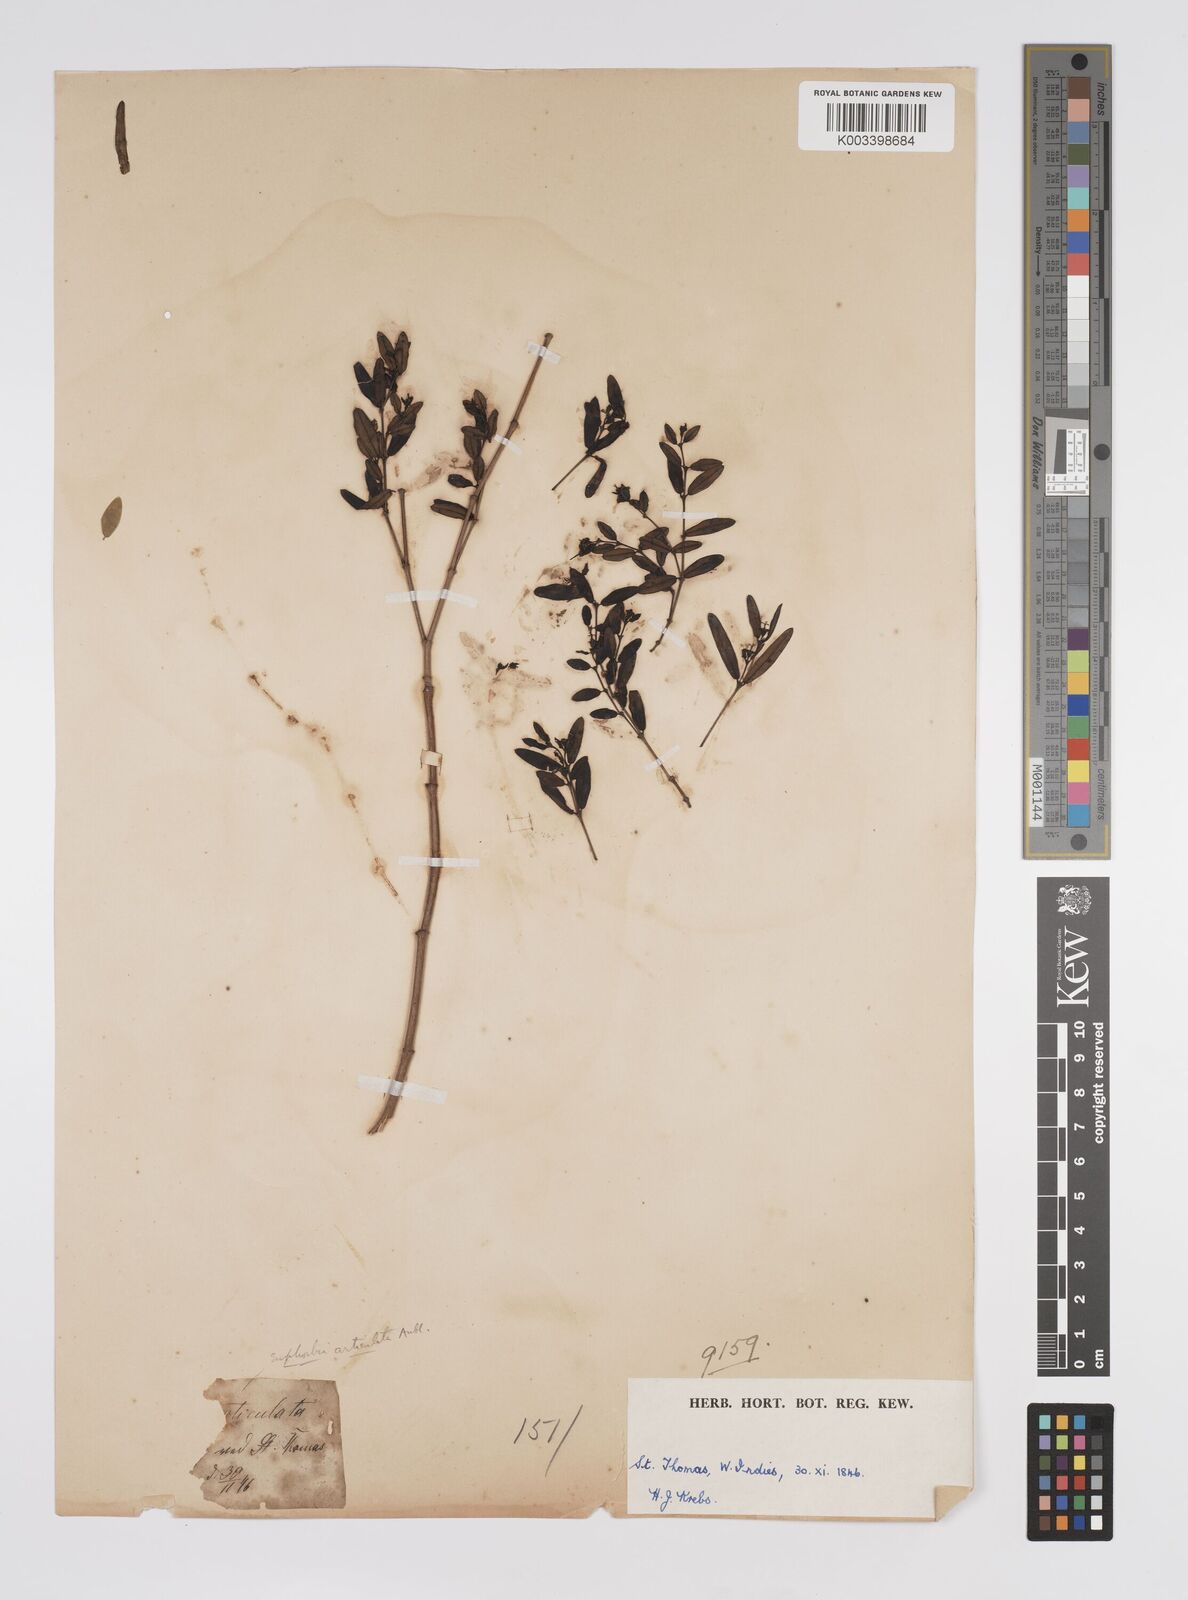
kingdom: Plantae
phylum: Tracheophyta
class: Magnoliopsida
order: Malpighiales
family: Euphorbiaceae
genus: Euphorbia
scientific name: Euphorbia articulata
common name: Jointed sandmat
